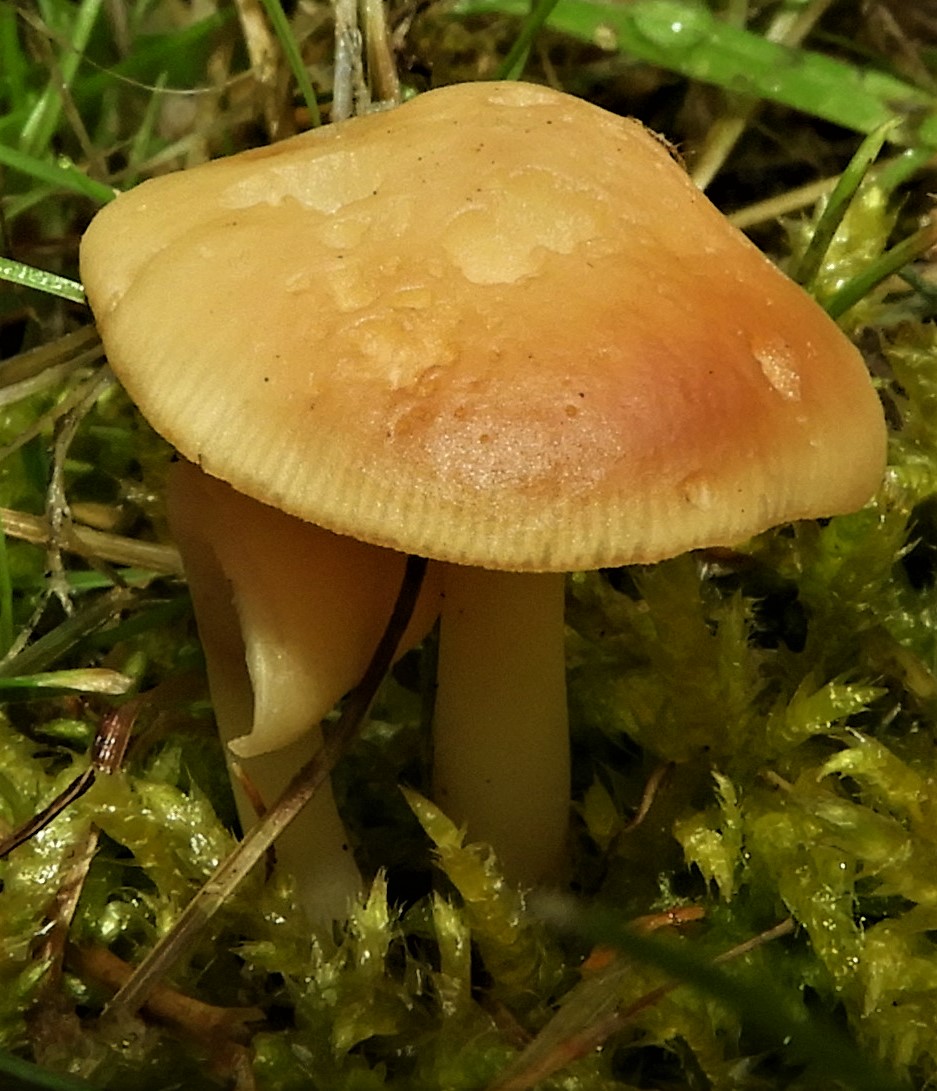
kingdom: Fungi
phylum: Basidiomycota
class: Agaricomycetes
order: Agaricales
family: Omphalotaceae
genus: Gymnopus
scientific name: Gymnopus
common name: fladhat
